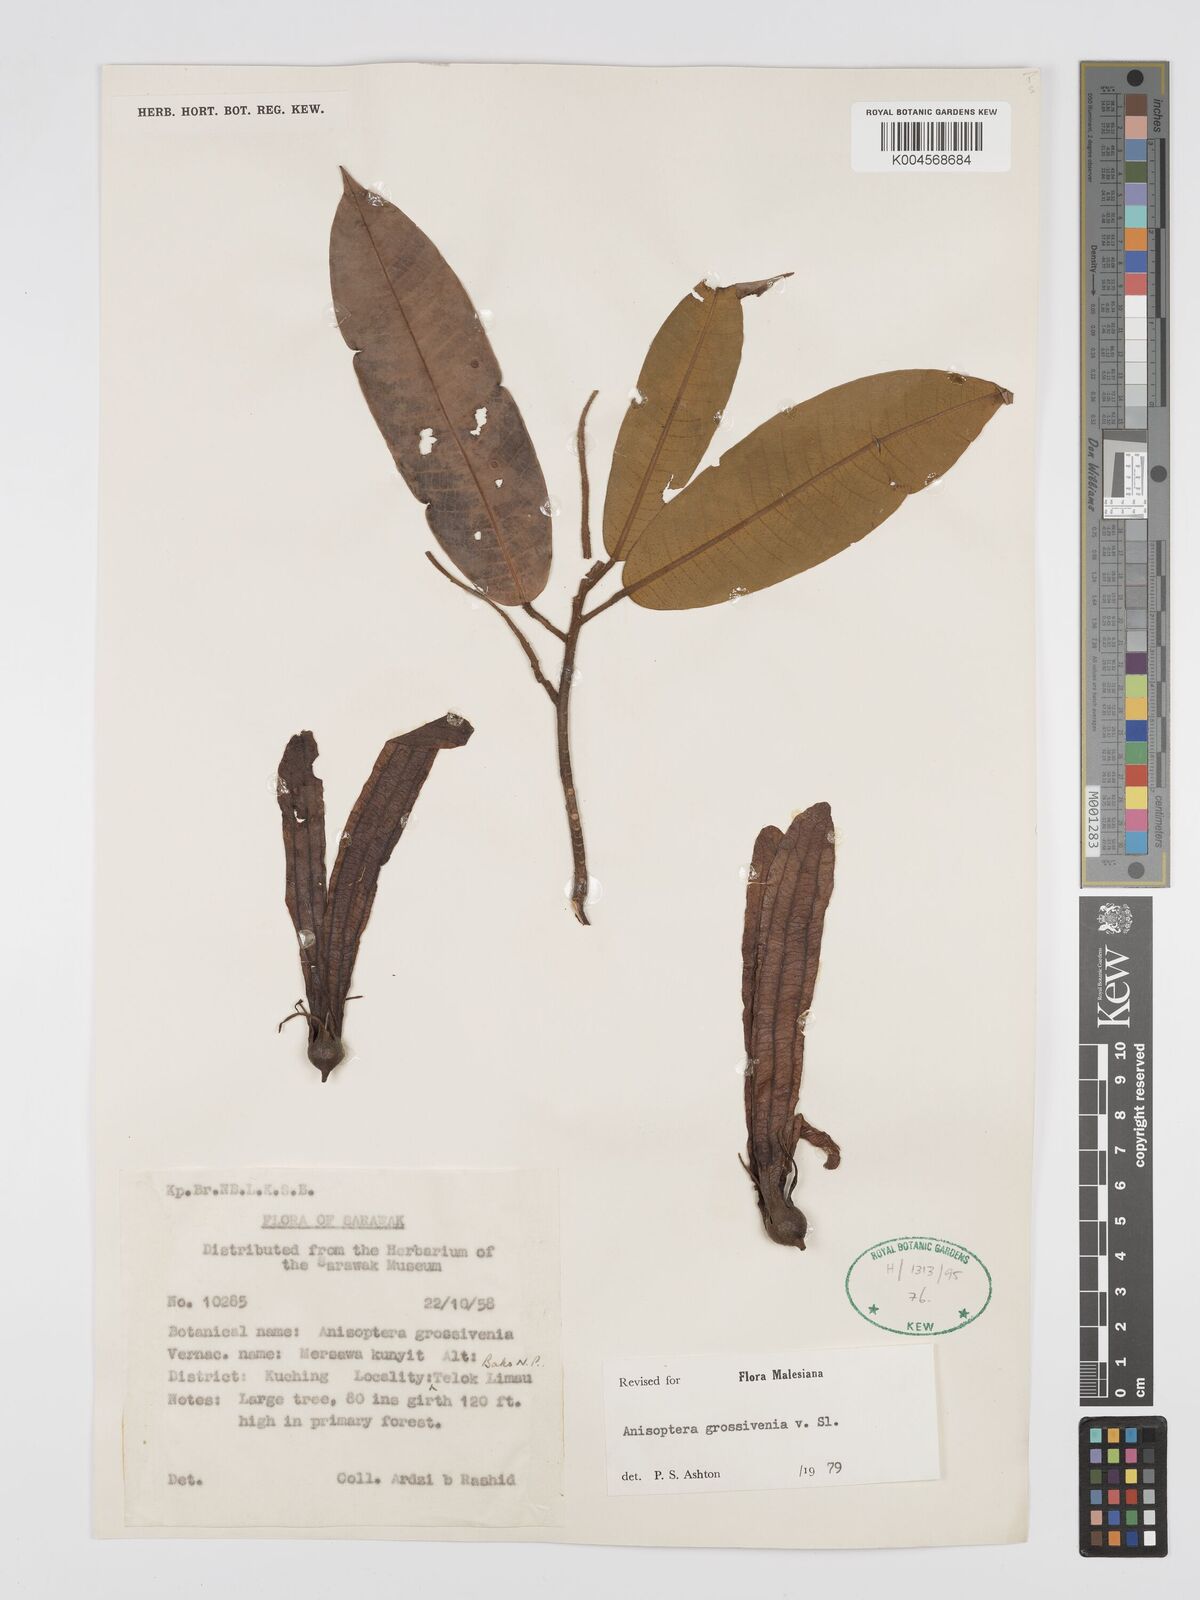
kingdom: Plantae
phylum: Tracheophyta
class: Magnoliopsida
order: Malvales
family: Dipterocarpaceae
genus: Anisoptera
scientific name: Anisoptera grossivenia
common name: Krabak
